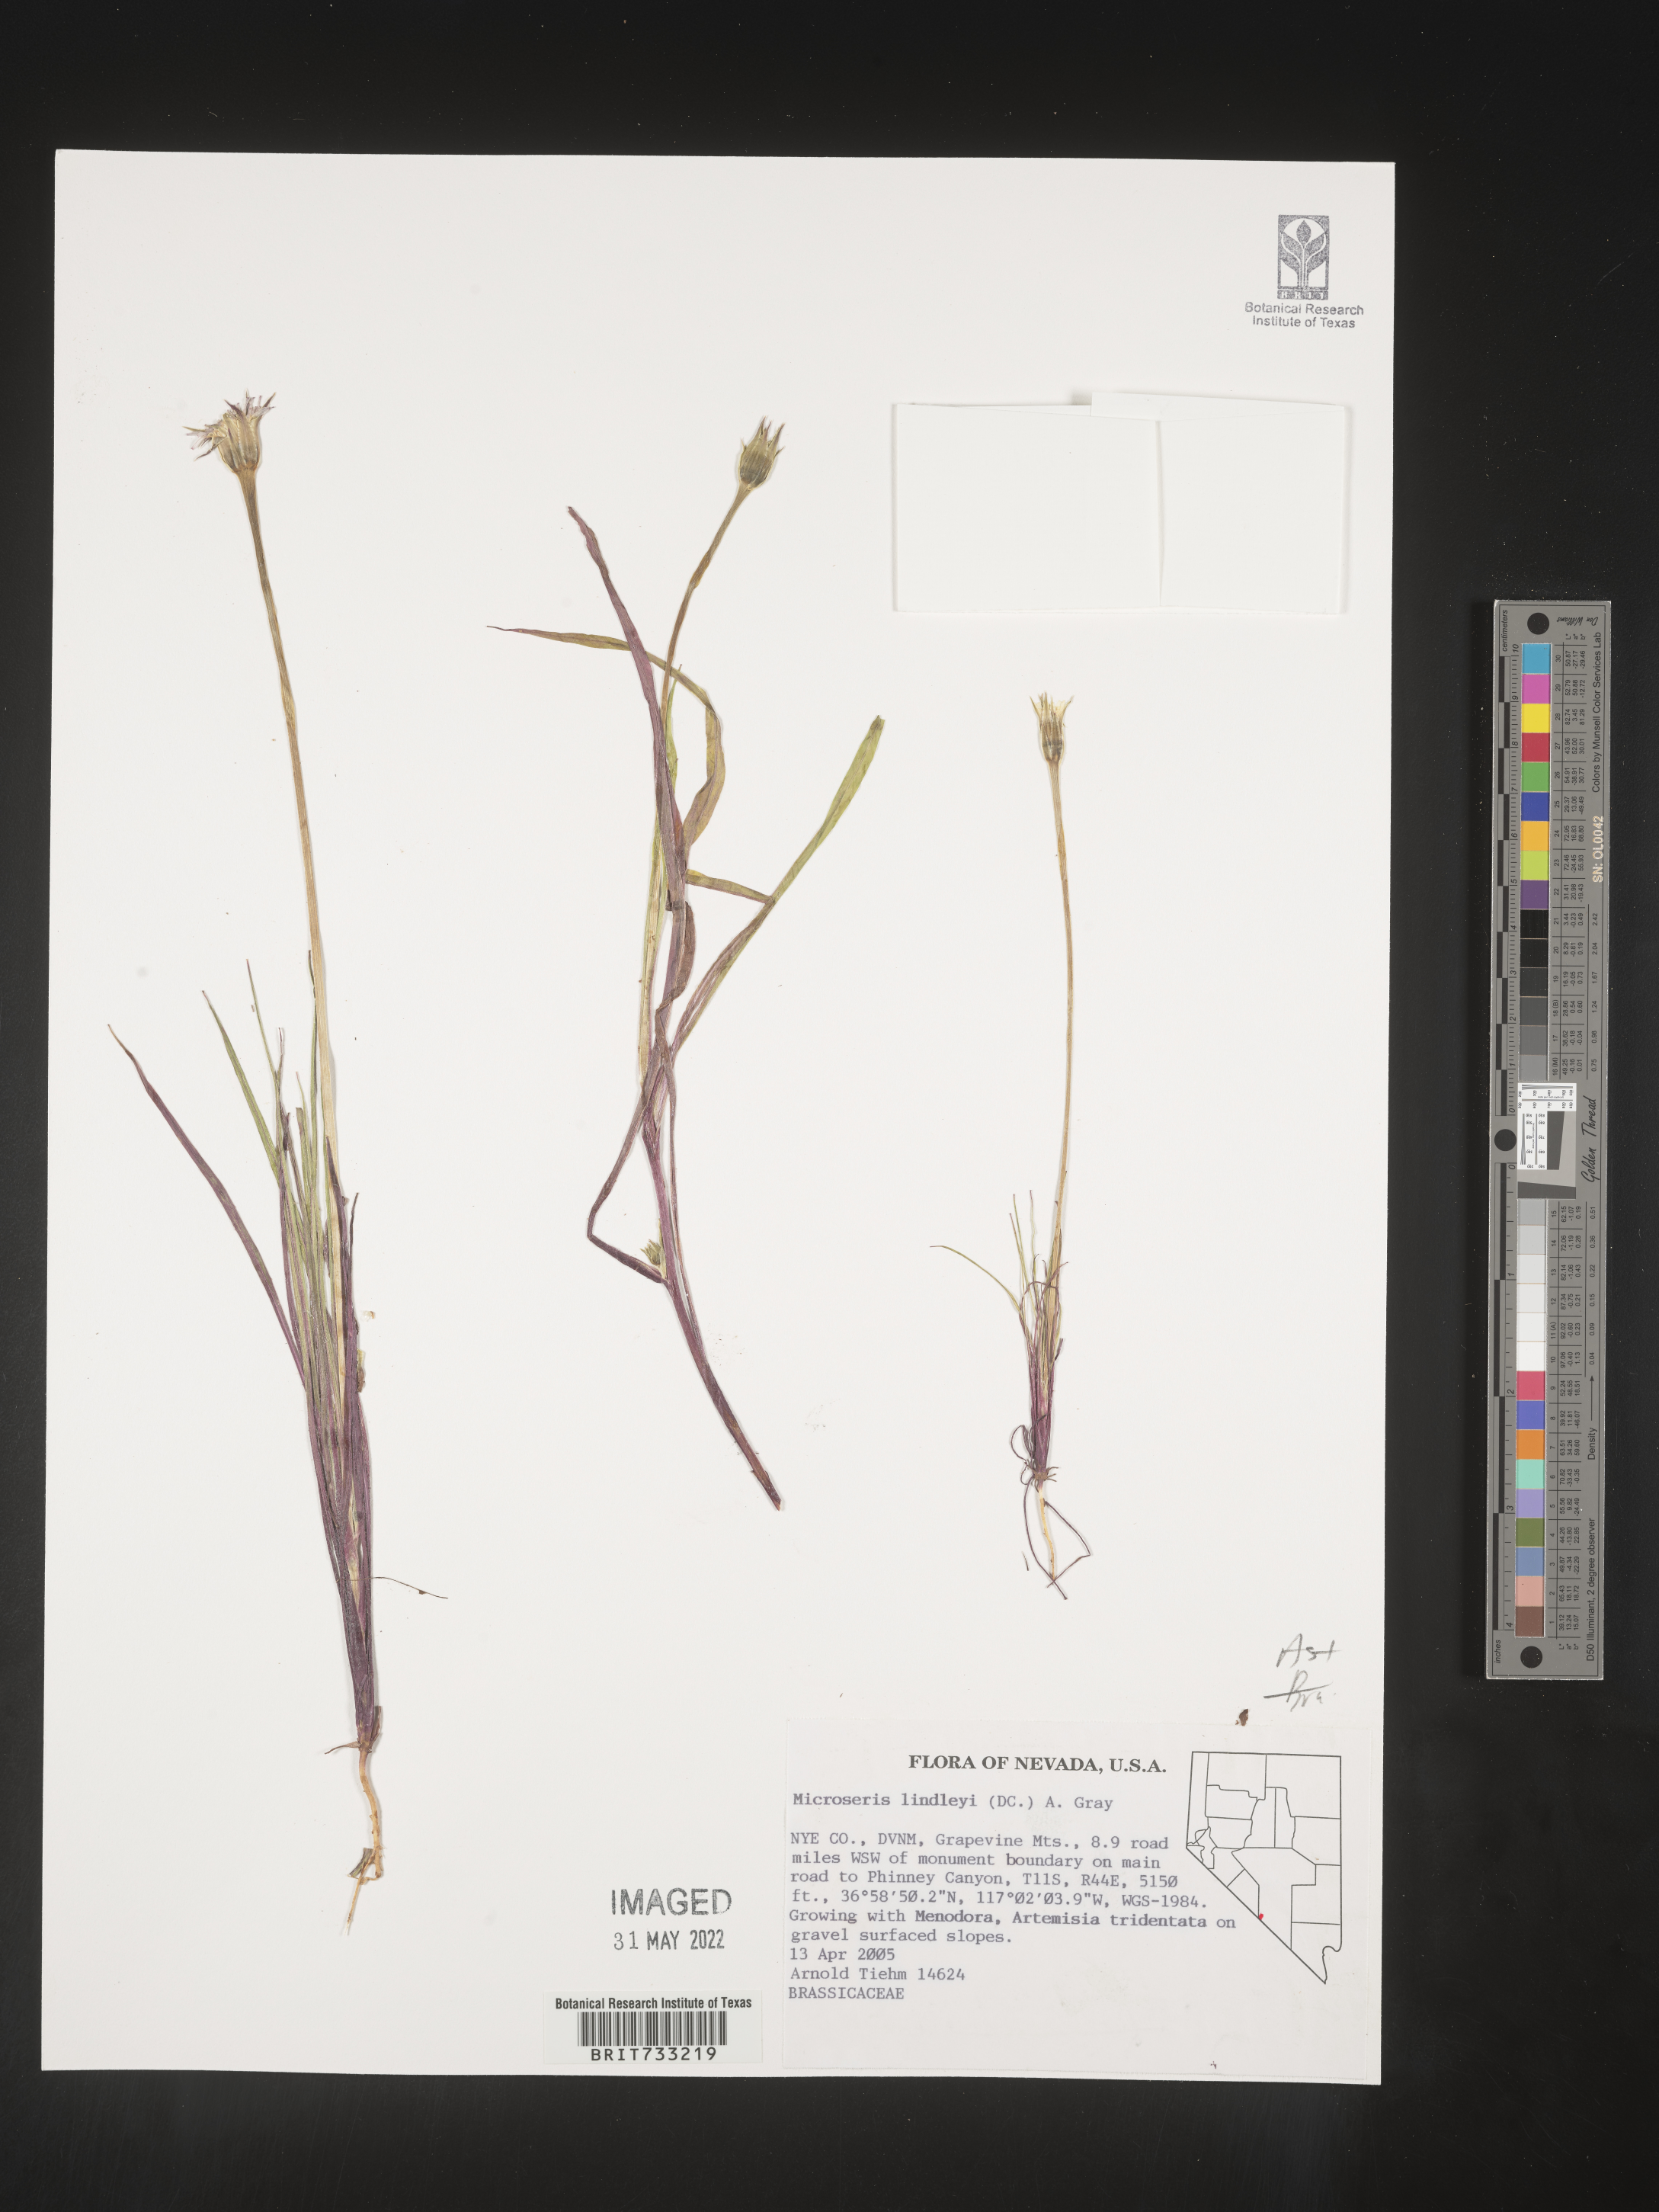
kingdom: Plantae
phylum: Tracheophyta
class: Magnoliopsida
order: Asterales
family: Asteraceae
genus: Microseris
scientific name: Microseris
